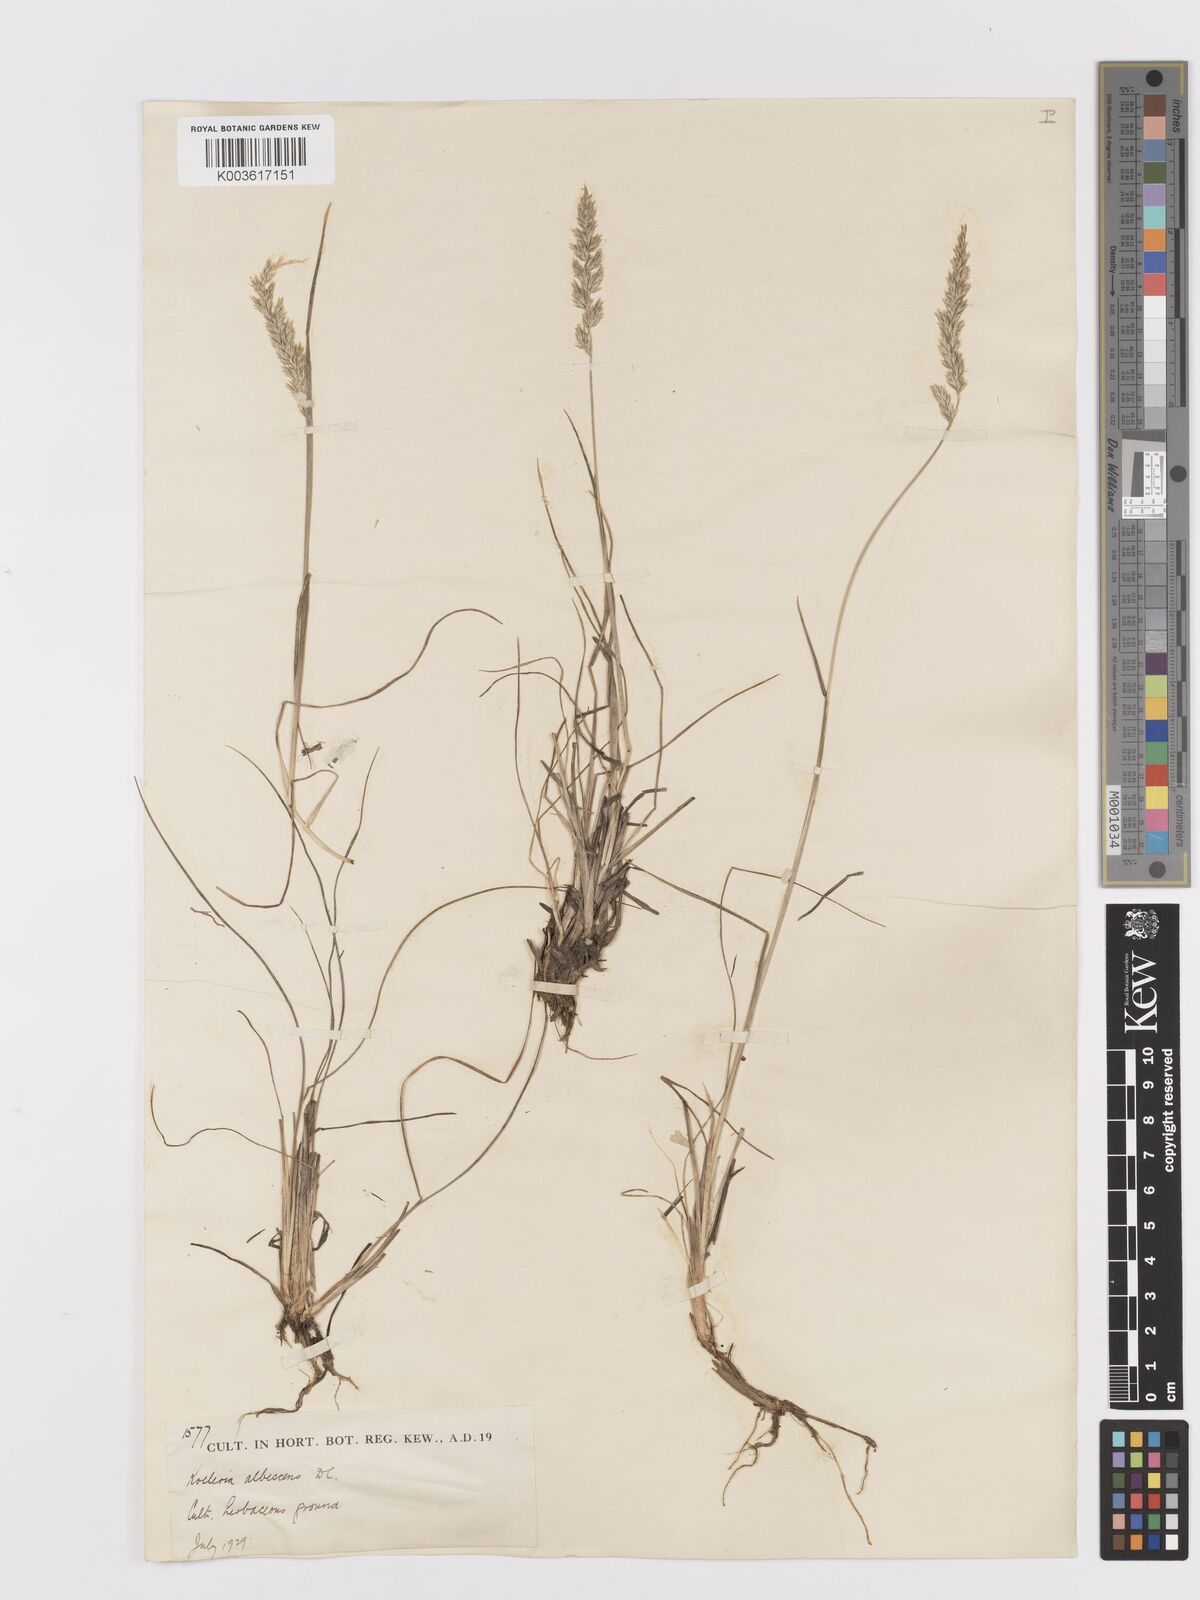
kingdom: Plantae
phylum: Tracheophyta
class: Liliopsida
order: Poales
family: Poaceae
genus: Koeleria
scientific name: Koeleria macrantha
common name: Crested hair-grass
